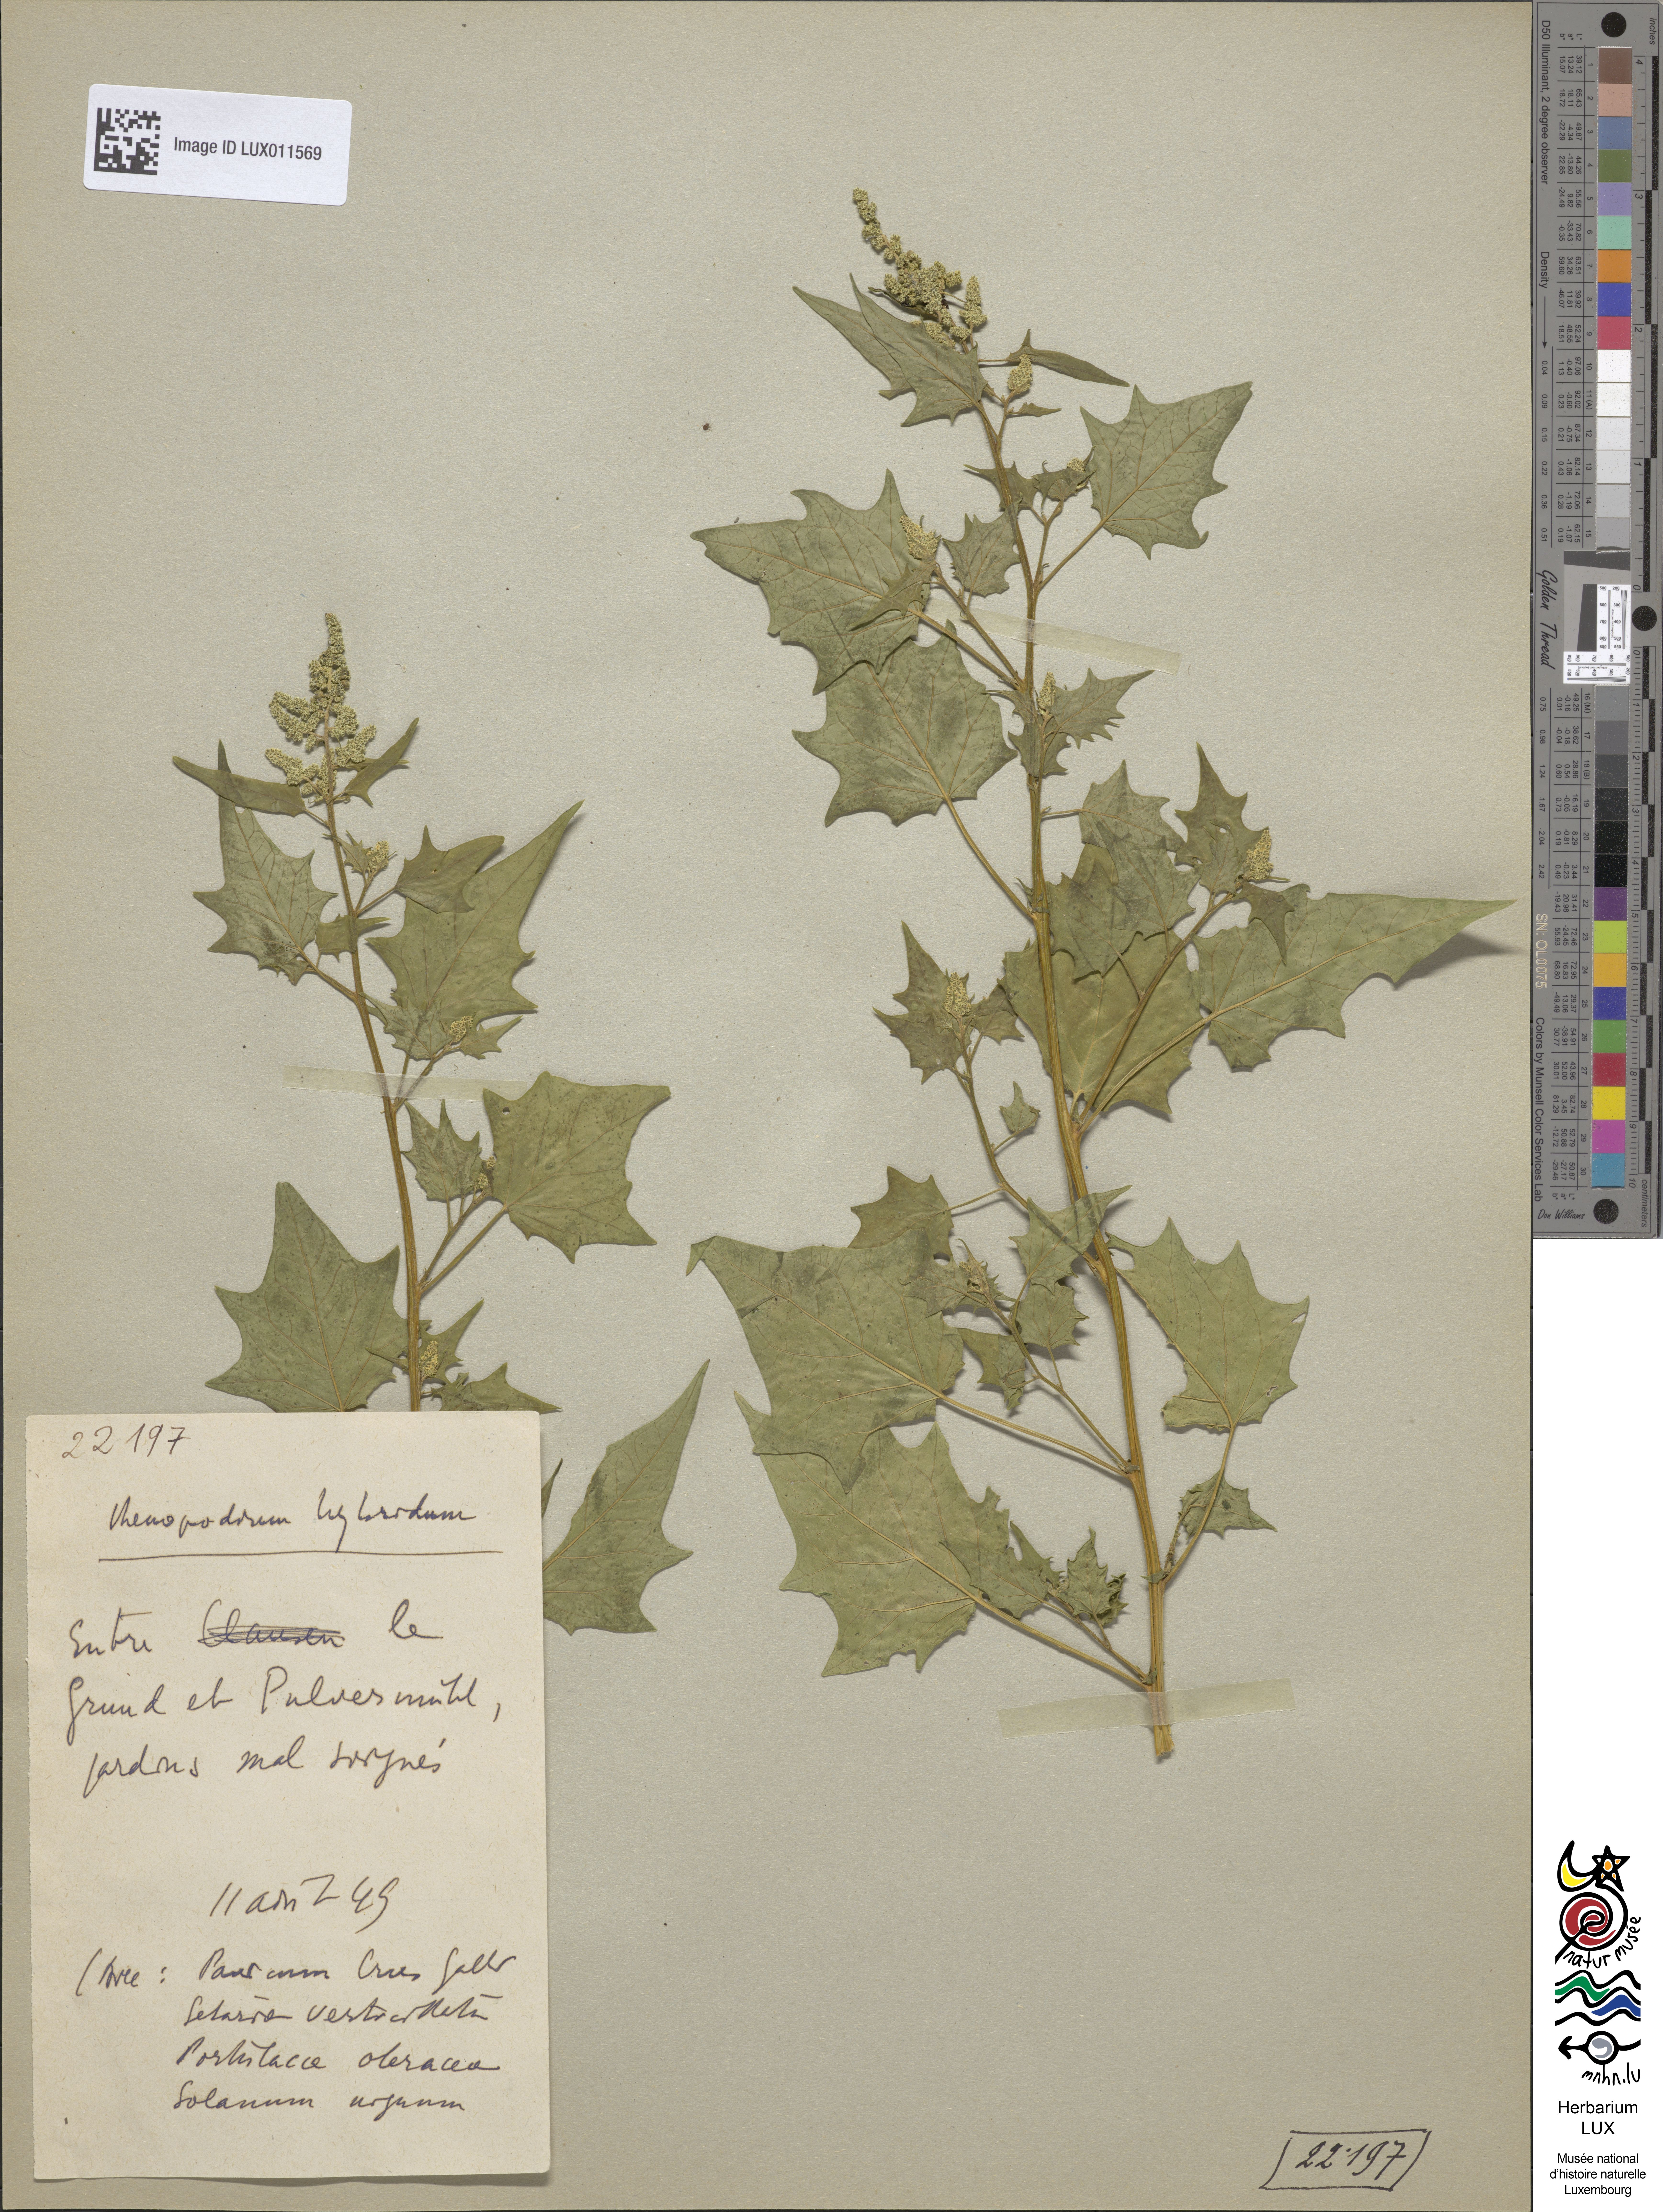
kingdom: Plantae
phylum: Tracheophyta
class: Magnoliopsida
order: Caryophyllales
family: Amaranthaceae
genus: Chenopodiastrum
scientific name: Chenopodiastrum hybridum
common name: Mapleleaf goosefoot
